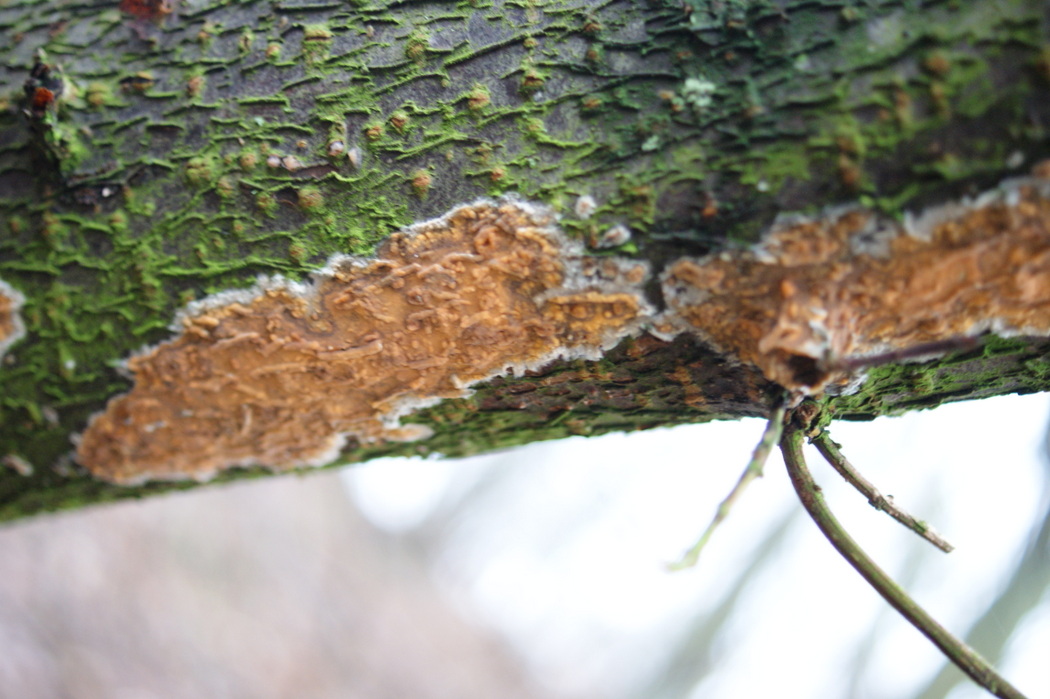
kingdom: Fungi
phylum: Basidiomycota
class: Agaricomycetes
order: Russulales
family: Peniophoraceae
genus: Peniophora
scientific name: Peniophora incarnata
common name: laksefarvet voksskind
